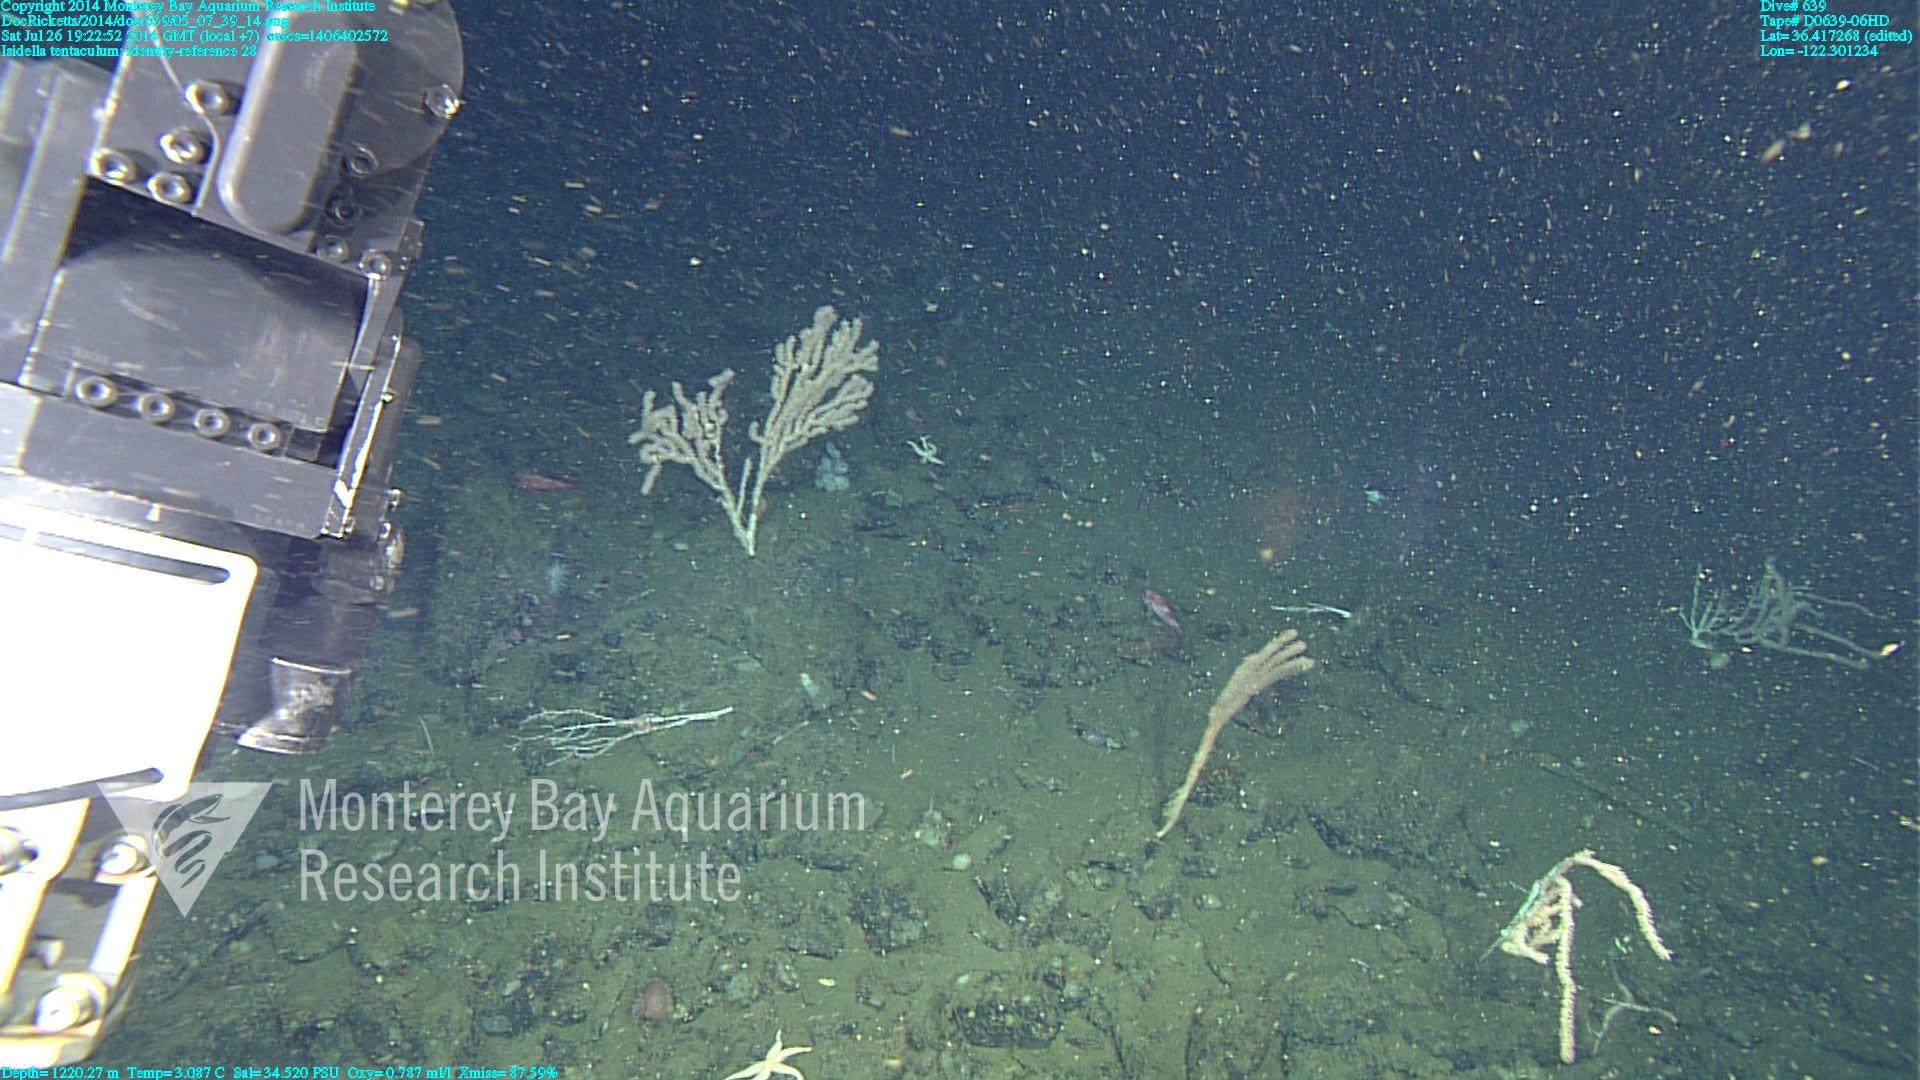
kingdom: Animalia
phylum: Cnidaria
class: Anthozoa
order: Scleralcyonacea
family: Keratoisididae
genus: Isidella
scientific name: Isidella tentaculum
